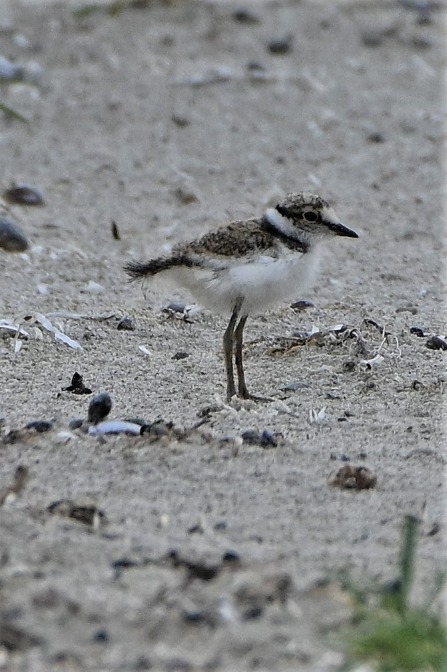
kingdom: Animalia
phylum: Chordata
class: Aves
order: Charadriiformes
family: Charadriidae
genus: Charadrius
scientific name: Charadrius dubius
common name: Lille præstekrave
